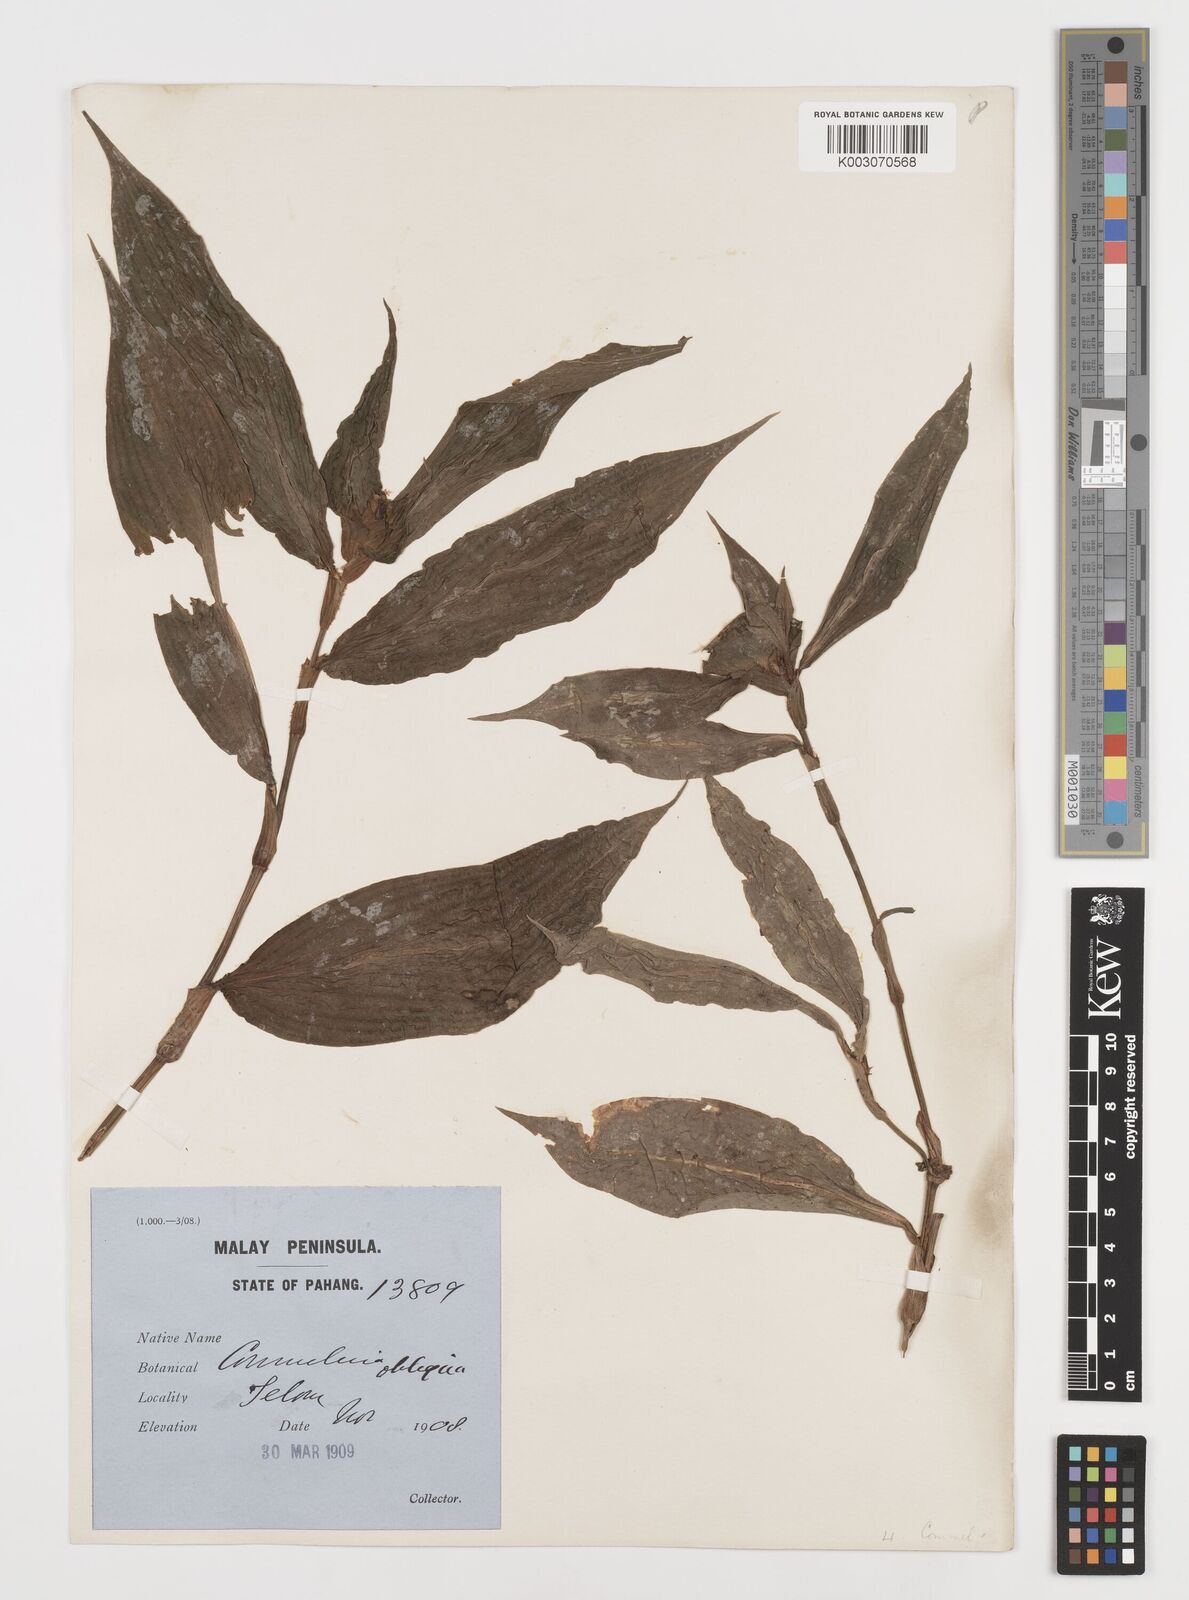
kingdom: Plantae
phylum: Tracheophyta
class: Liliopsida
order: Commelinales
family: Commelinaceae
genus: Commelina
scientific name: Commelina paludosa
